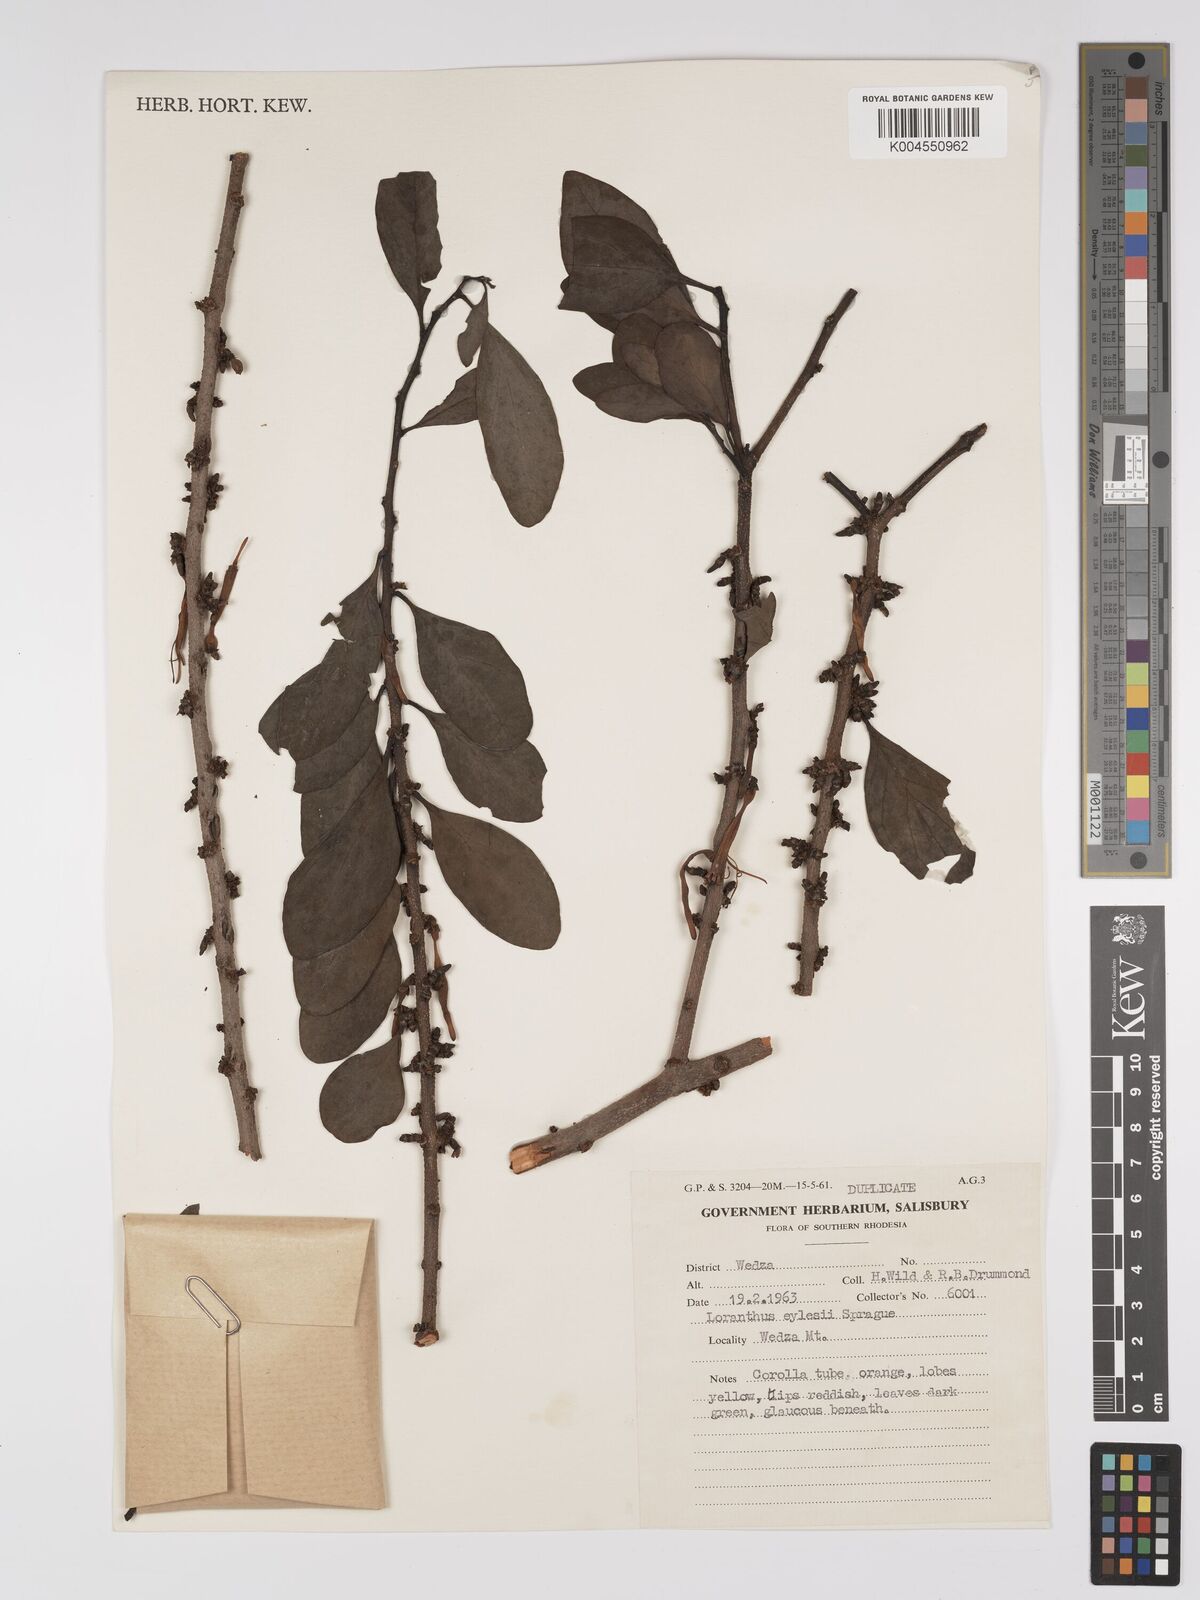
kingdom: Plantae
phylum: Tracheophyta
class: Magnoliopsida
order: Santalales
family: Loranthaceae
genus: Agelanthus
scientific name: Agelanthus fuellebornii
